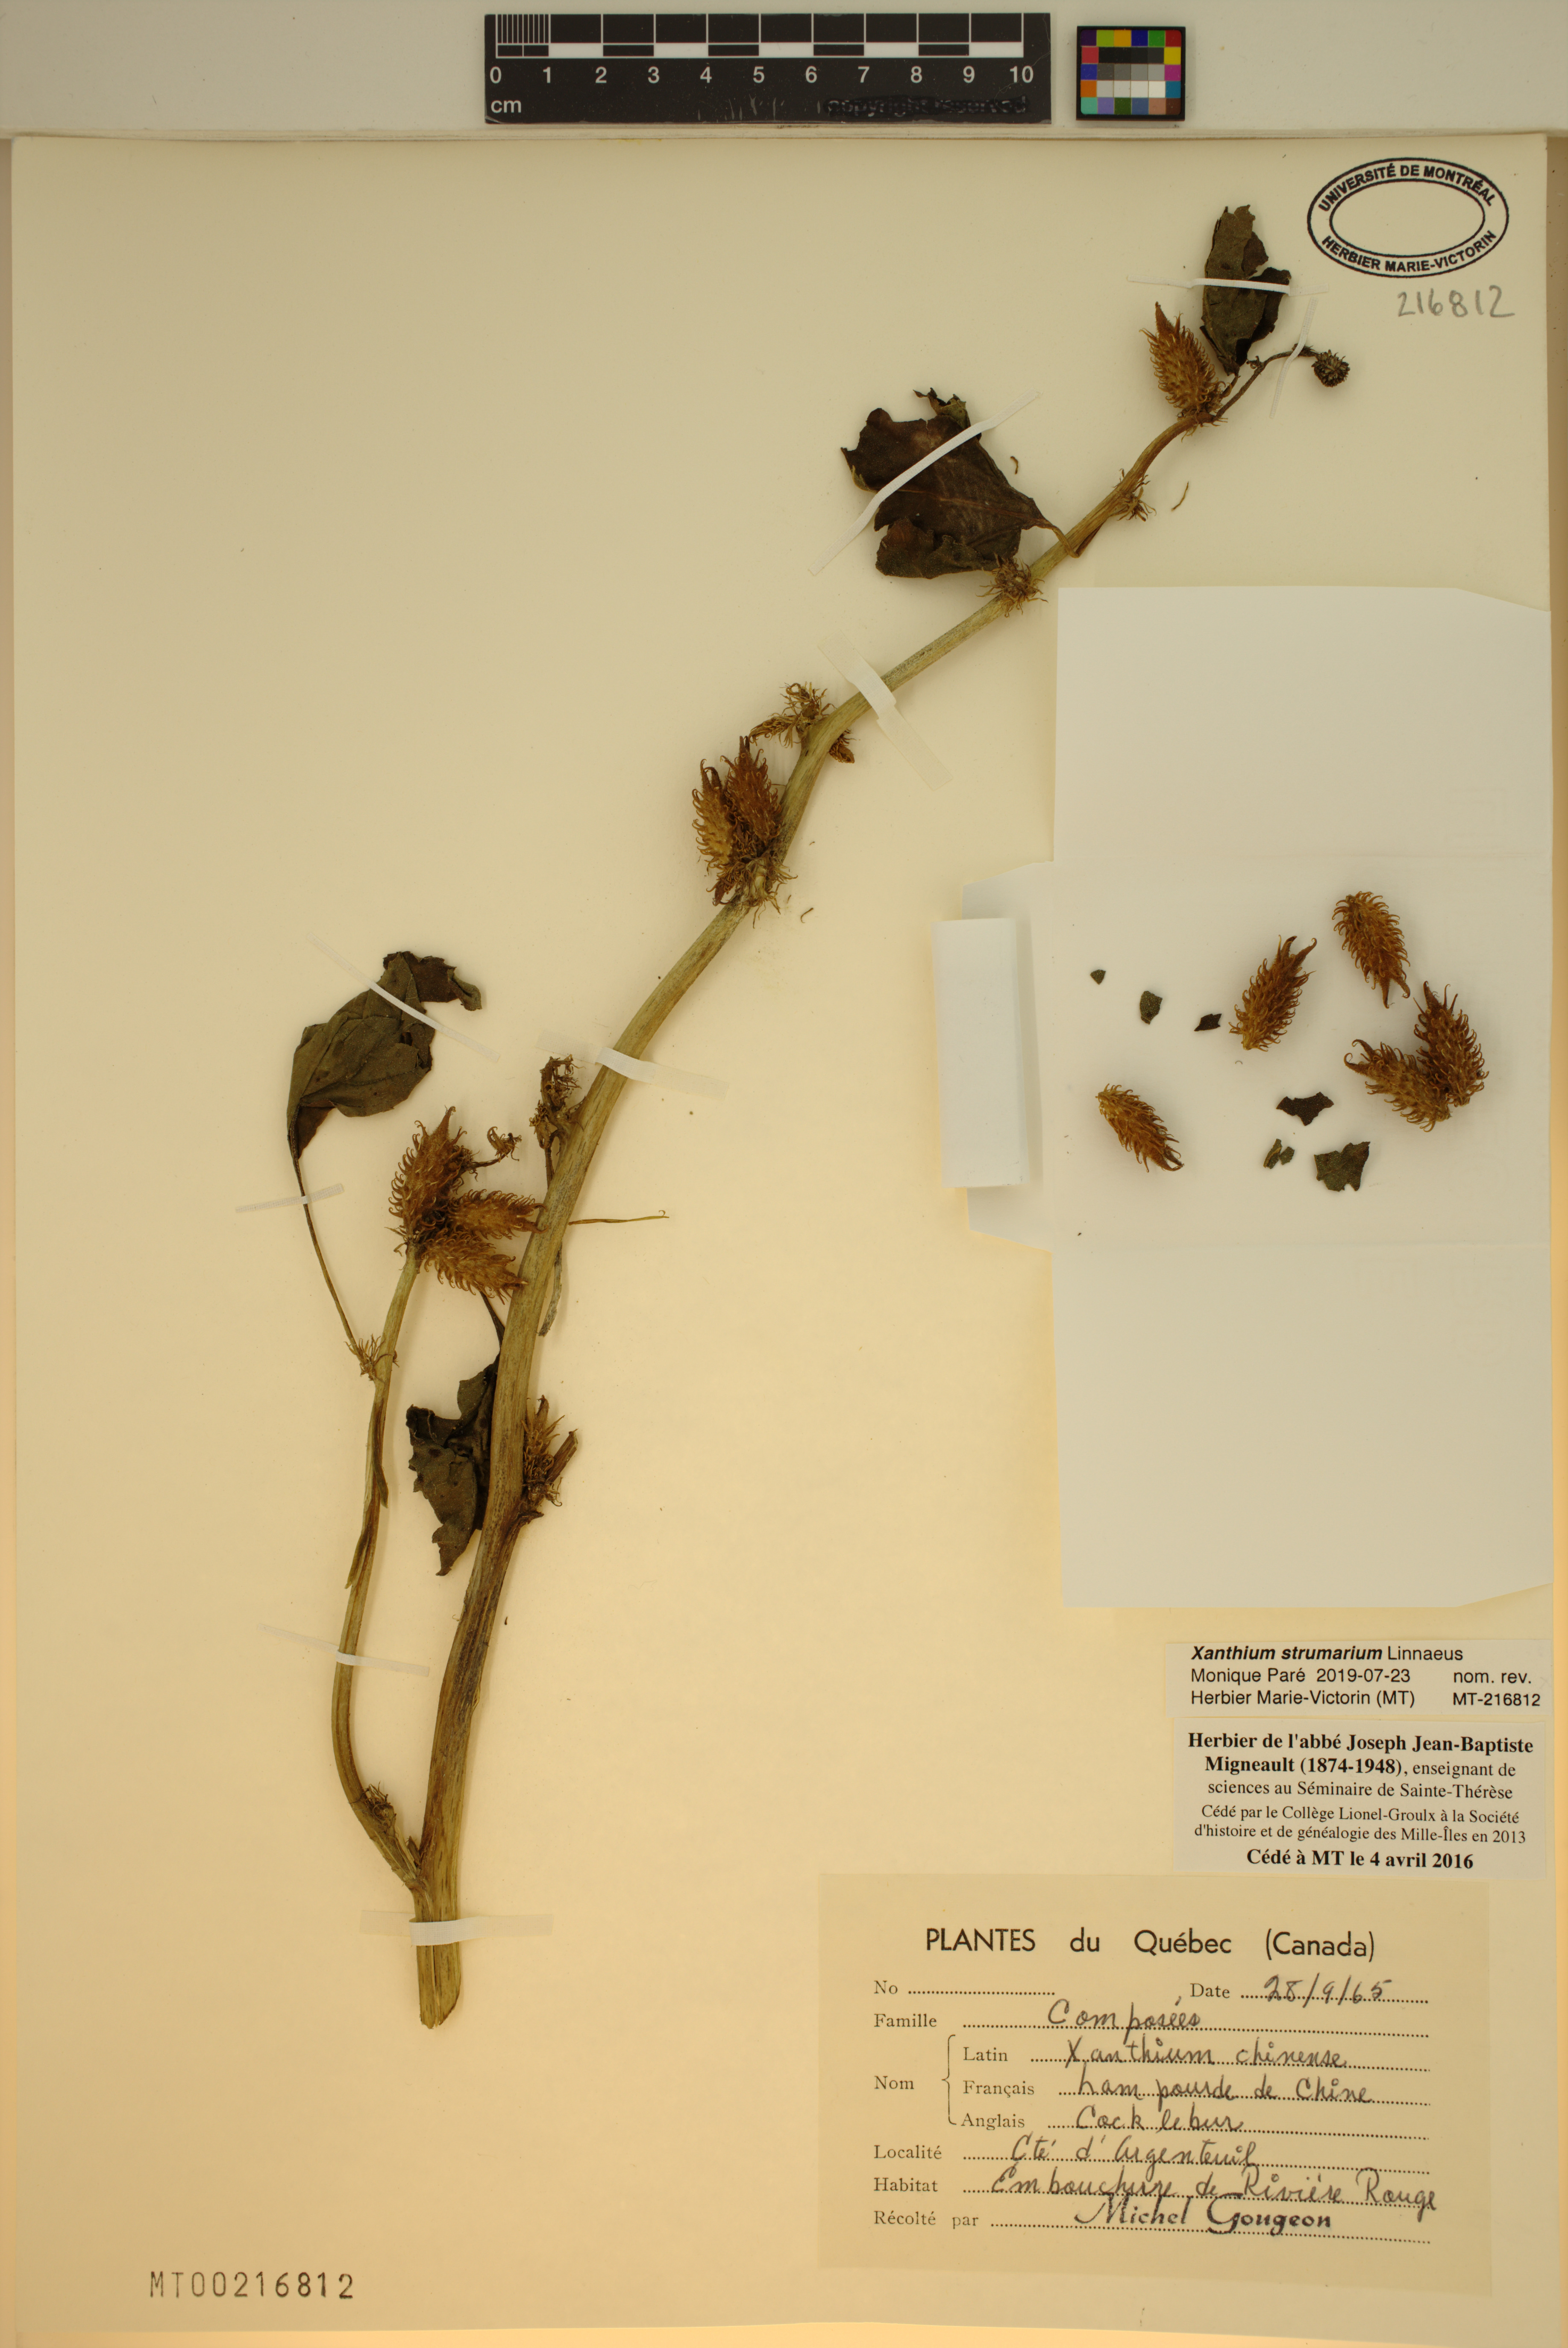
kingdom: Plantae
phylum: Tracheophyta
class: Magnoliopsida
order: Asterales
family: Asteraceae
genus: Xanthium
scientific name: Xanthium strumarium
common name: Rough cocklebur
